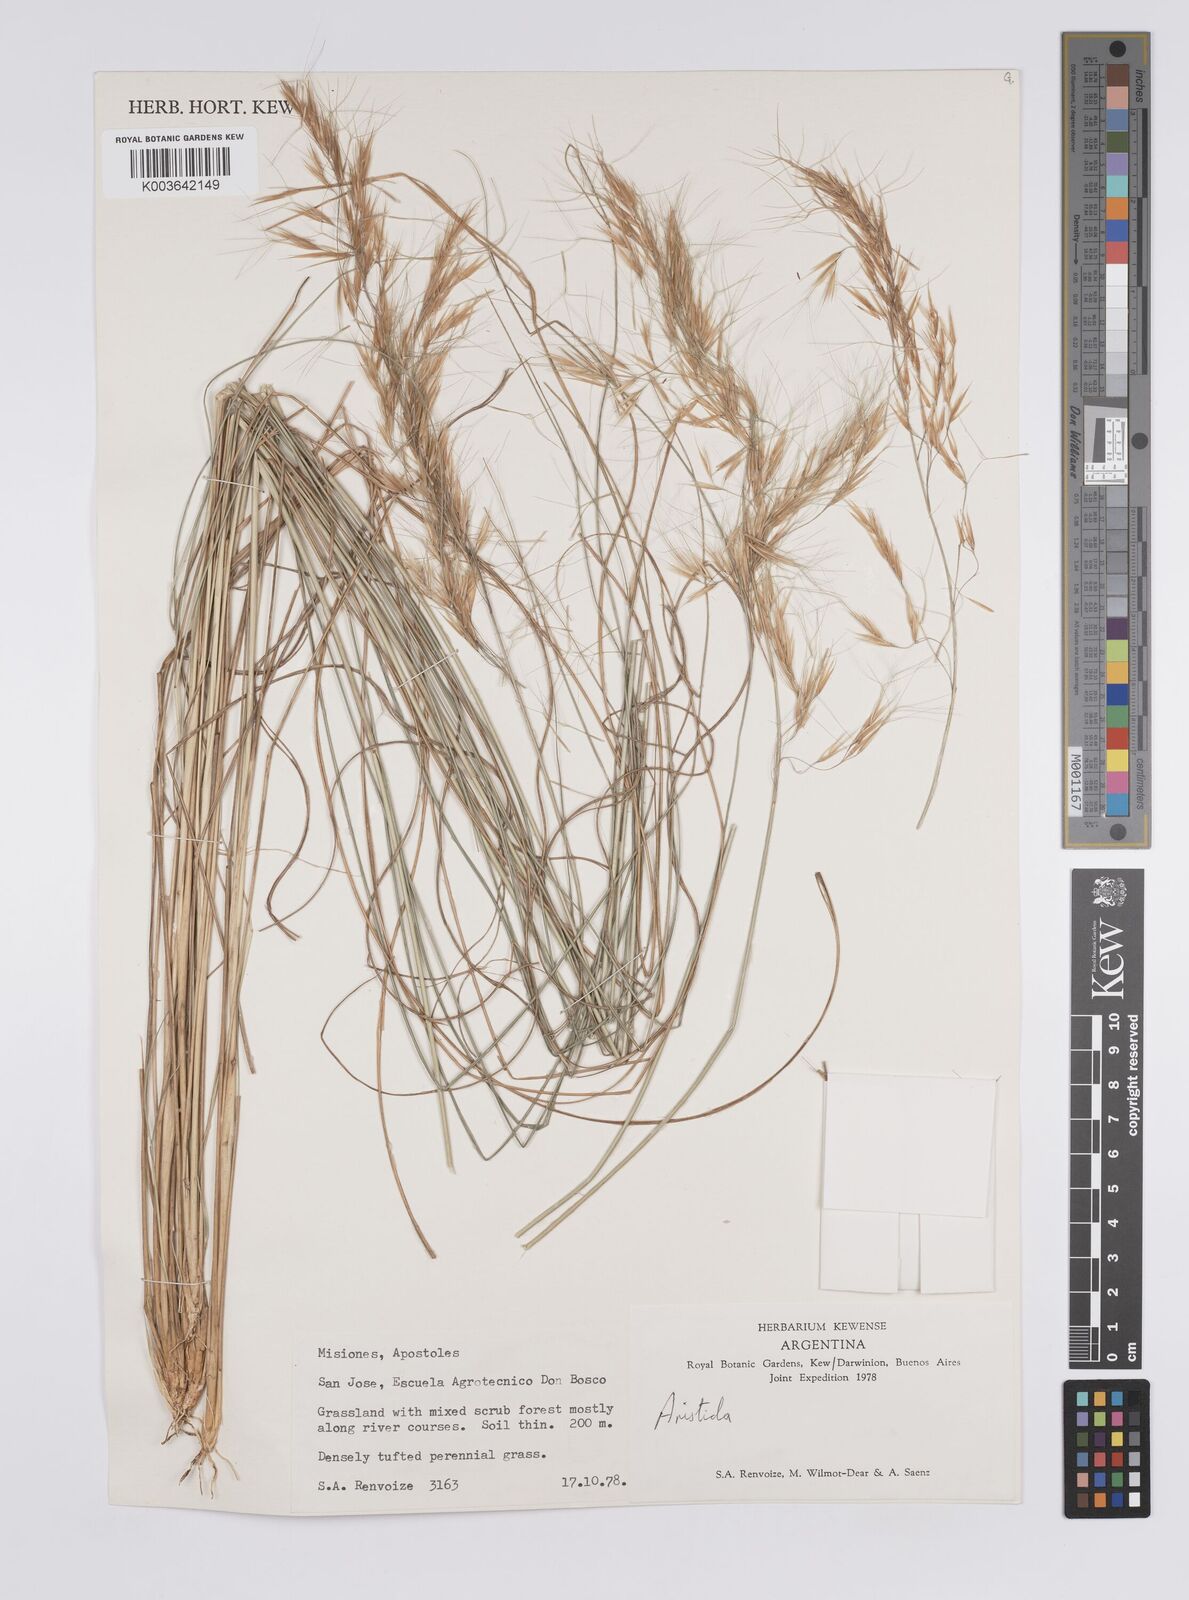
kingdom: Plantae
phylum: Tracheophyta
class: Liliopsida
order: Poales
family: Poaceae
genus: Aristida
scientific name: Aristida
